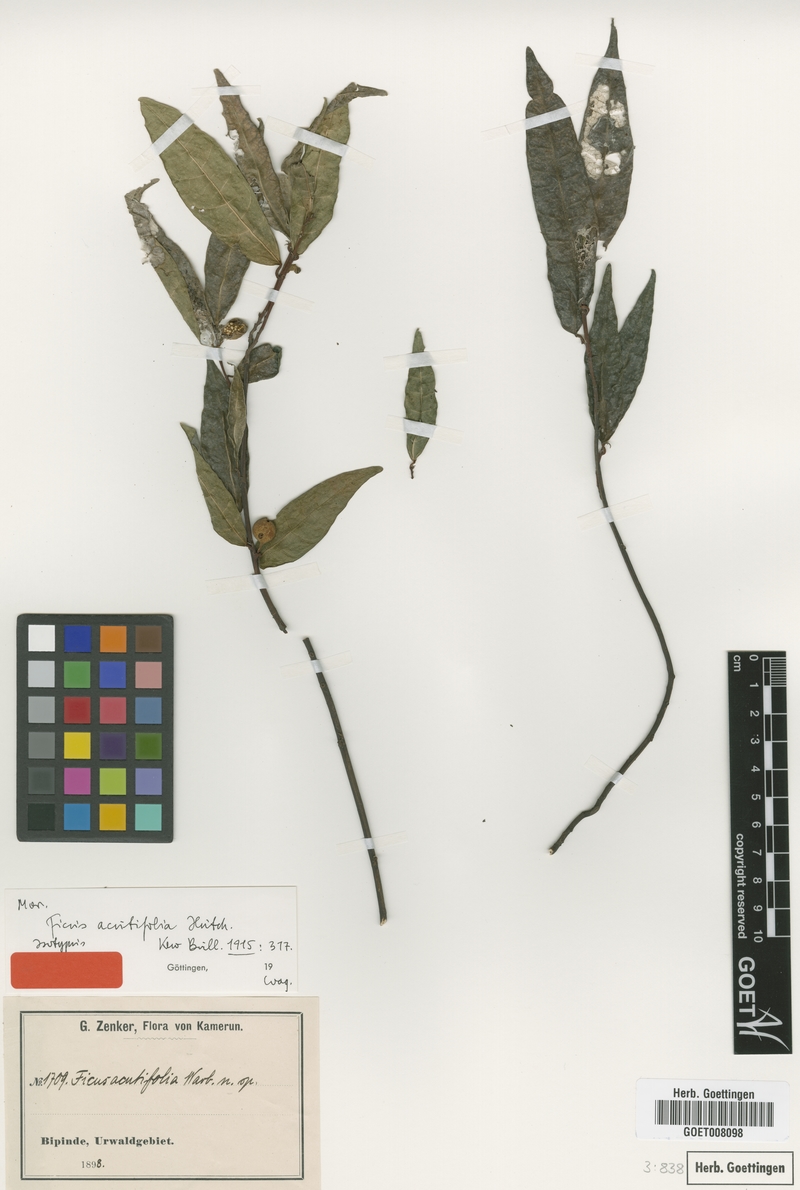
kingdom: Plantae
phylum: Tracheophyta
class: Magnoliopsida
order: Rosales
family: Moraceae
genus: Ficus
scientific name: Ficus asperifolia
